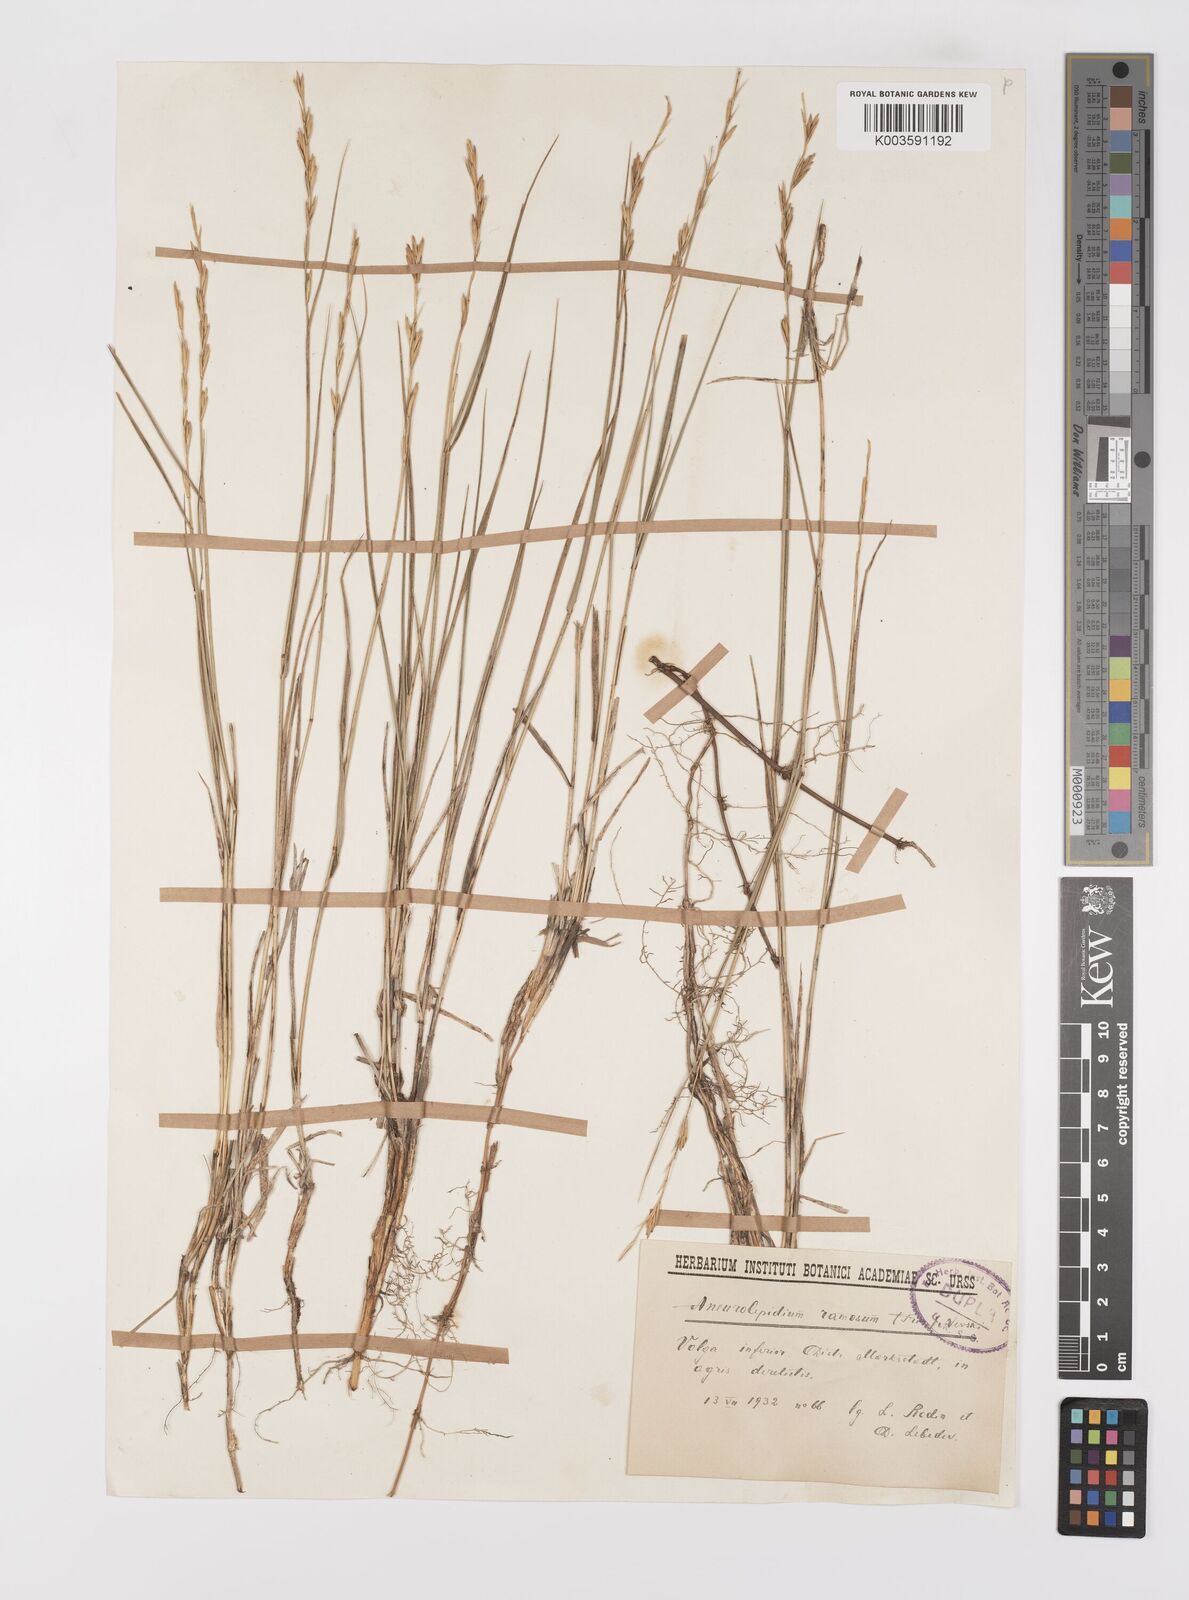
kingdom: Plantae
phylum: Tracheophyta
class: Liliopsida
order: Poales
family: Poaceae
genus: Leymus
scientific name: Leymus ramosus
